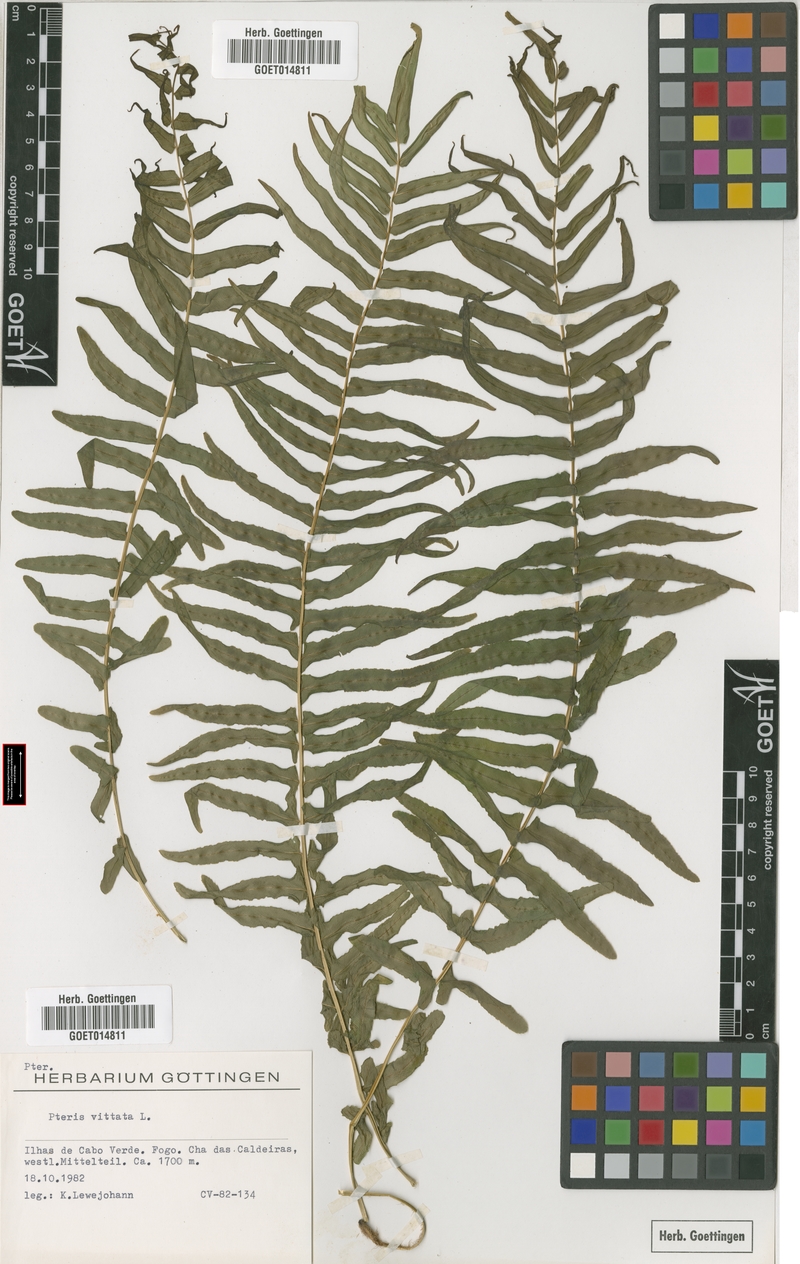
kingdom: Plantae
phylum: Tracheophyta
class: Polypodiopsida
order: Polypodiales
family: Pteridaceae
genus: Pteris
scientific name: Pteris vittata
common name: Ladder brake
